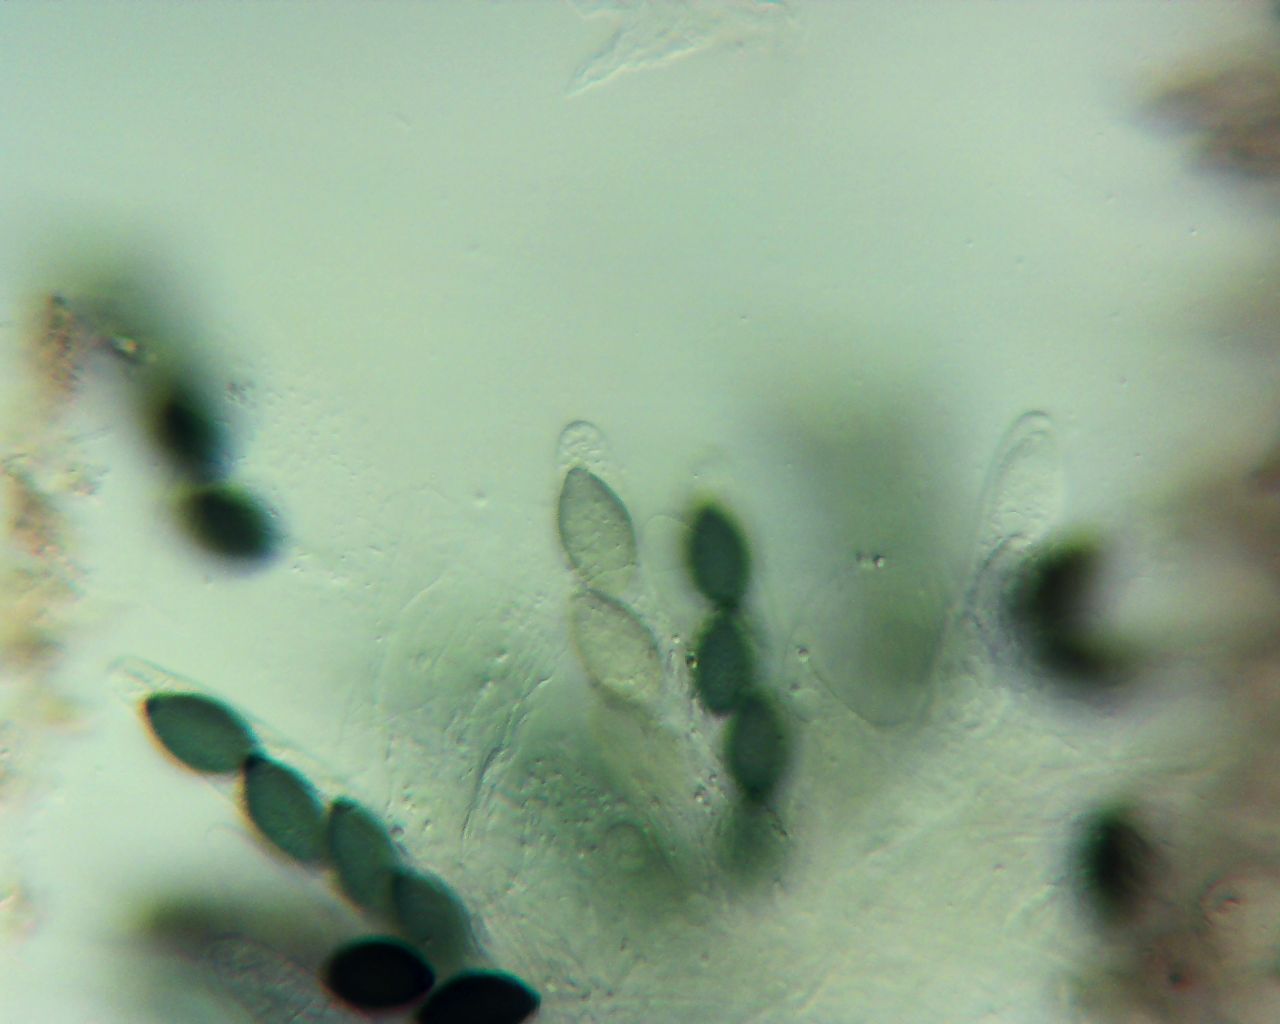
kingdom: Fungi
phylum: Ascomycota
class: Sordariomycetes
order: Sordariales
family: Neoschizotheciaceae
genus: Neoschizothecium
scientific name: Neoschizothecium tetrasporum
